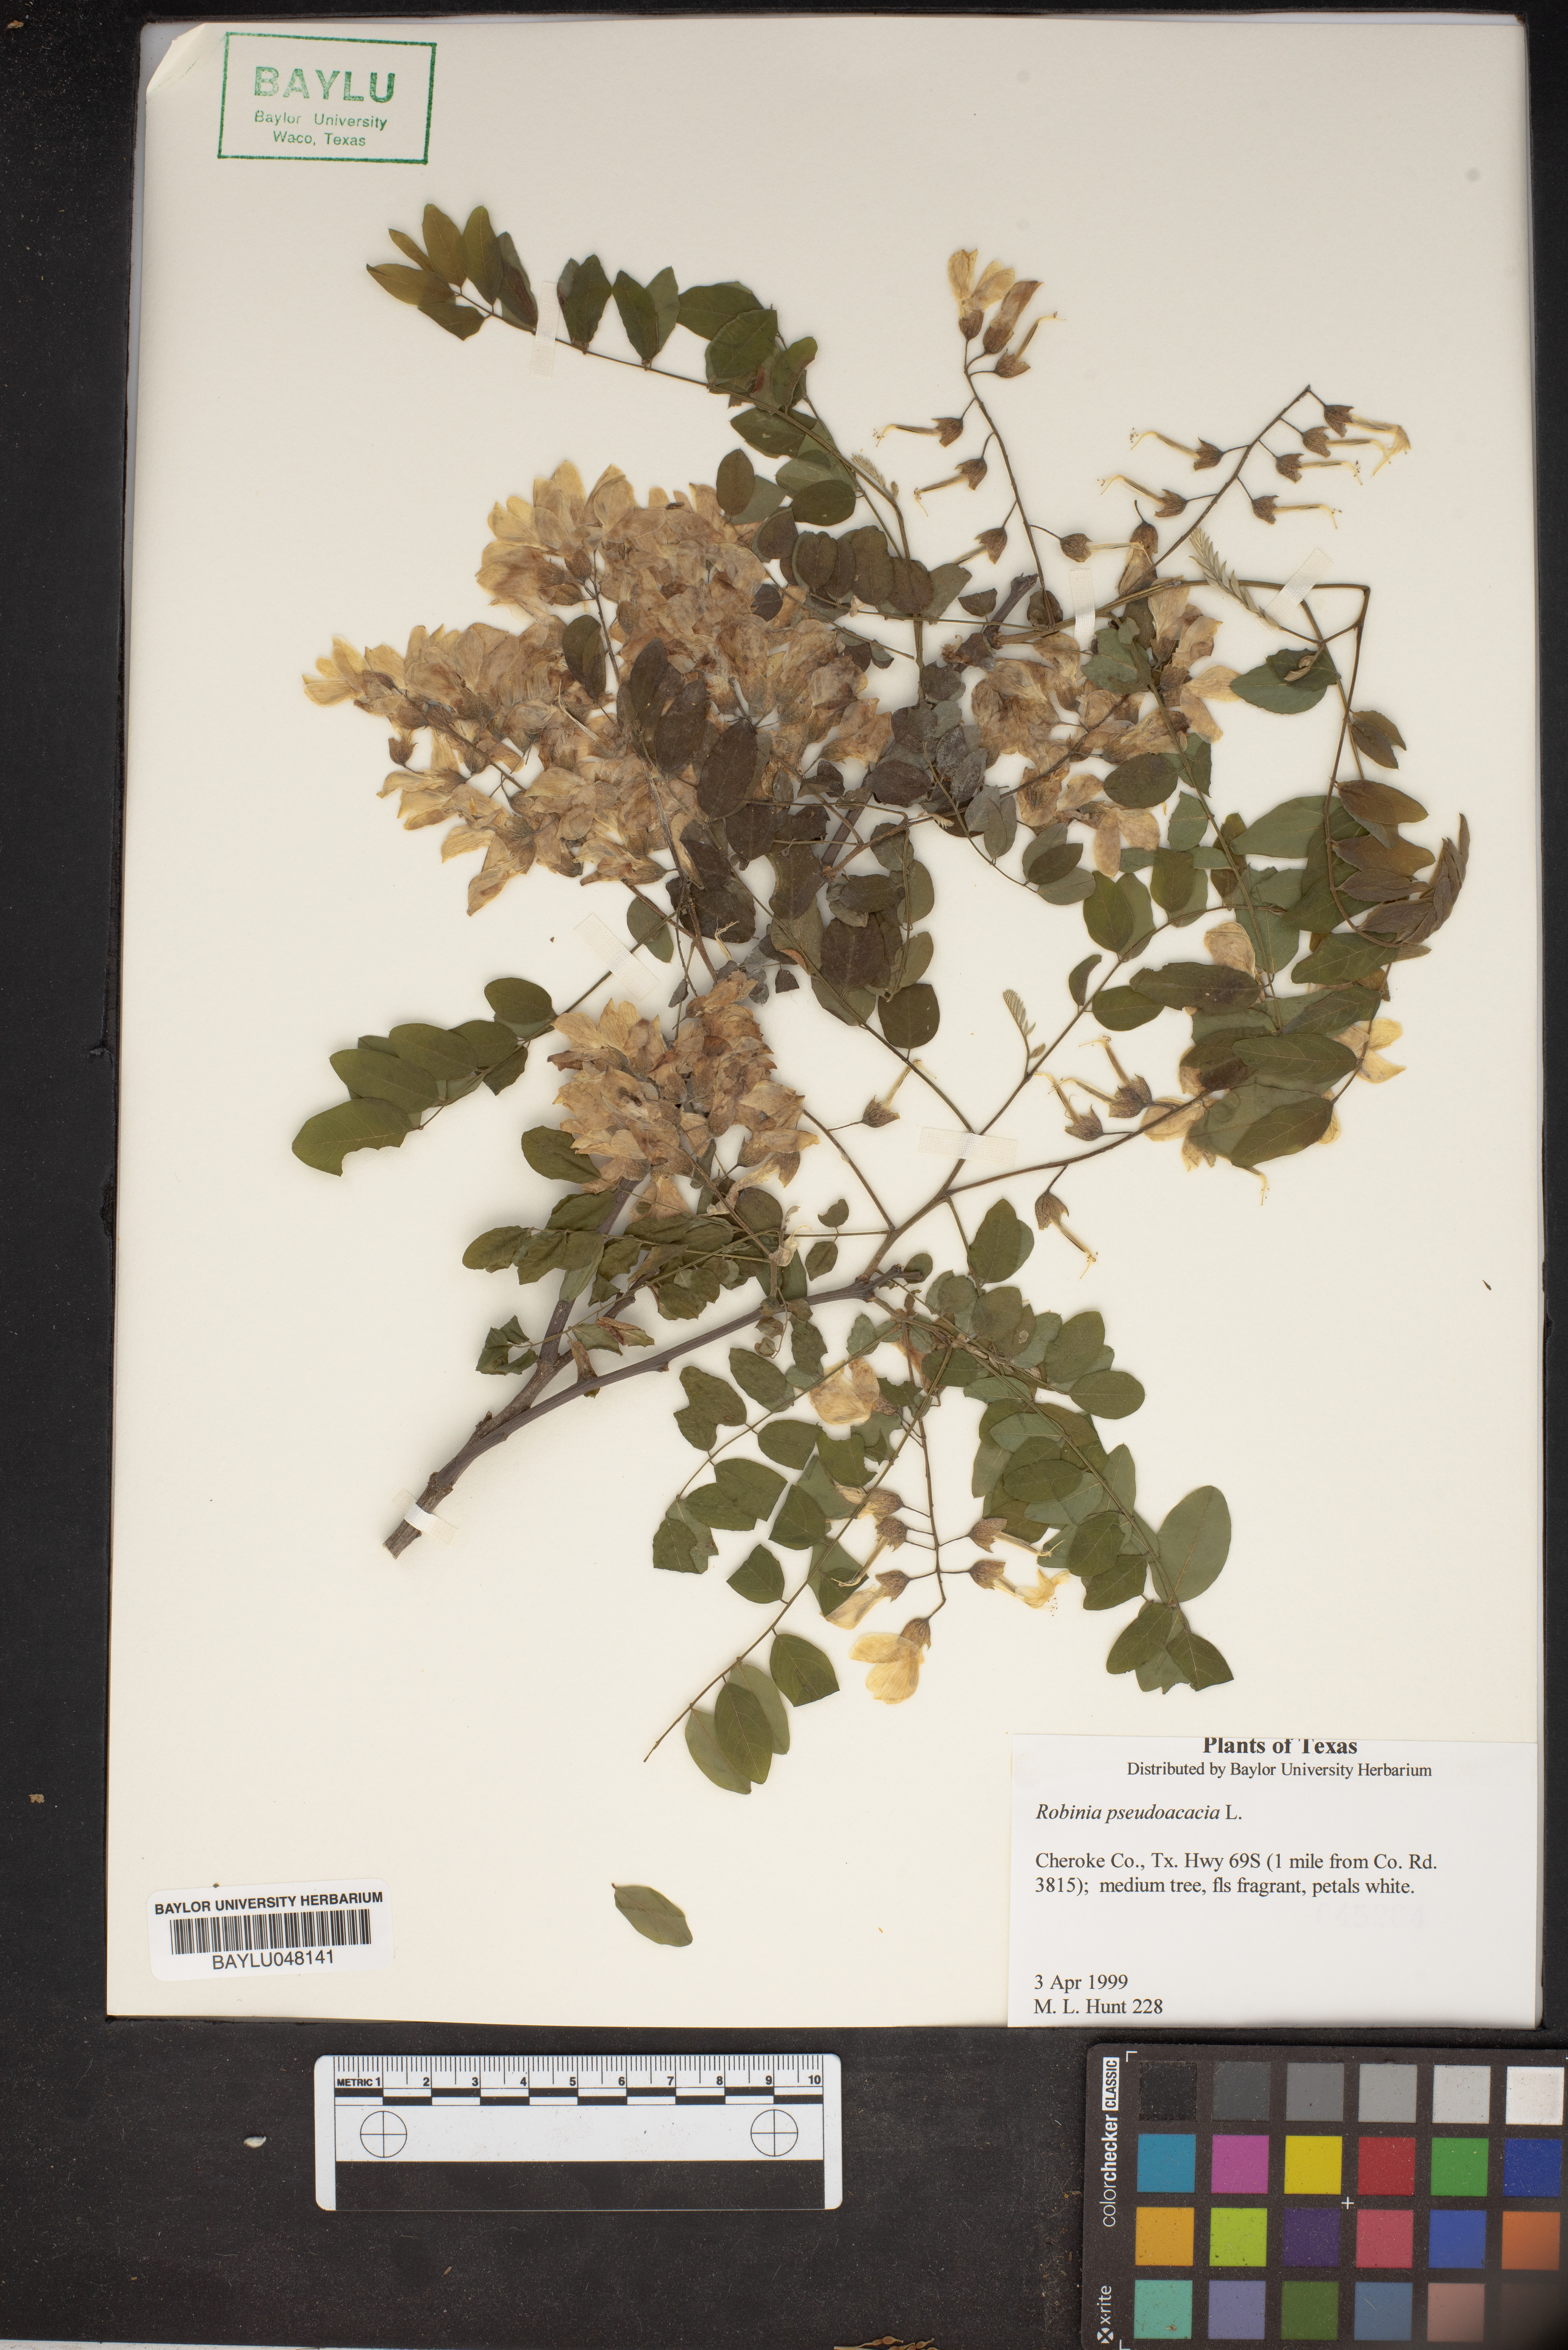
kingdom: Plantae
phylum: Tracheophyta
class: Magnoliopsida
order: Fabales
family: Fabaceae
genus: Robinia
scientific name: Robinia pseudoacacia
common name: Black locust
